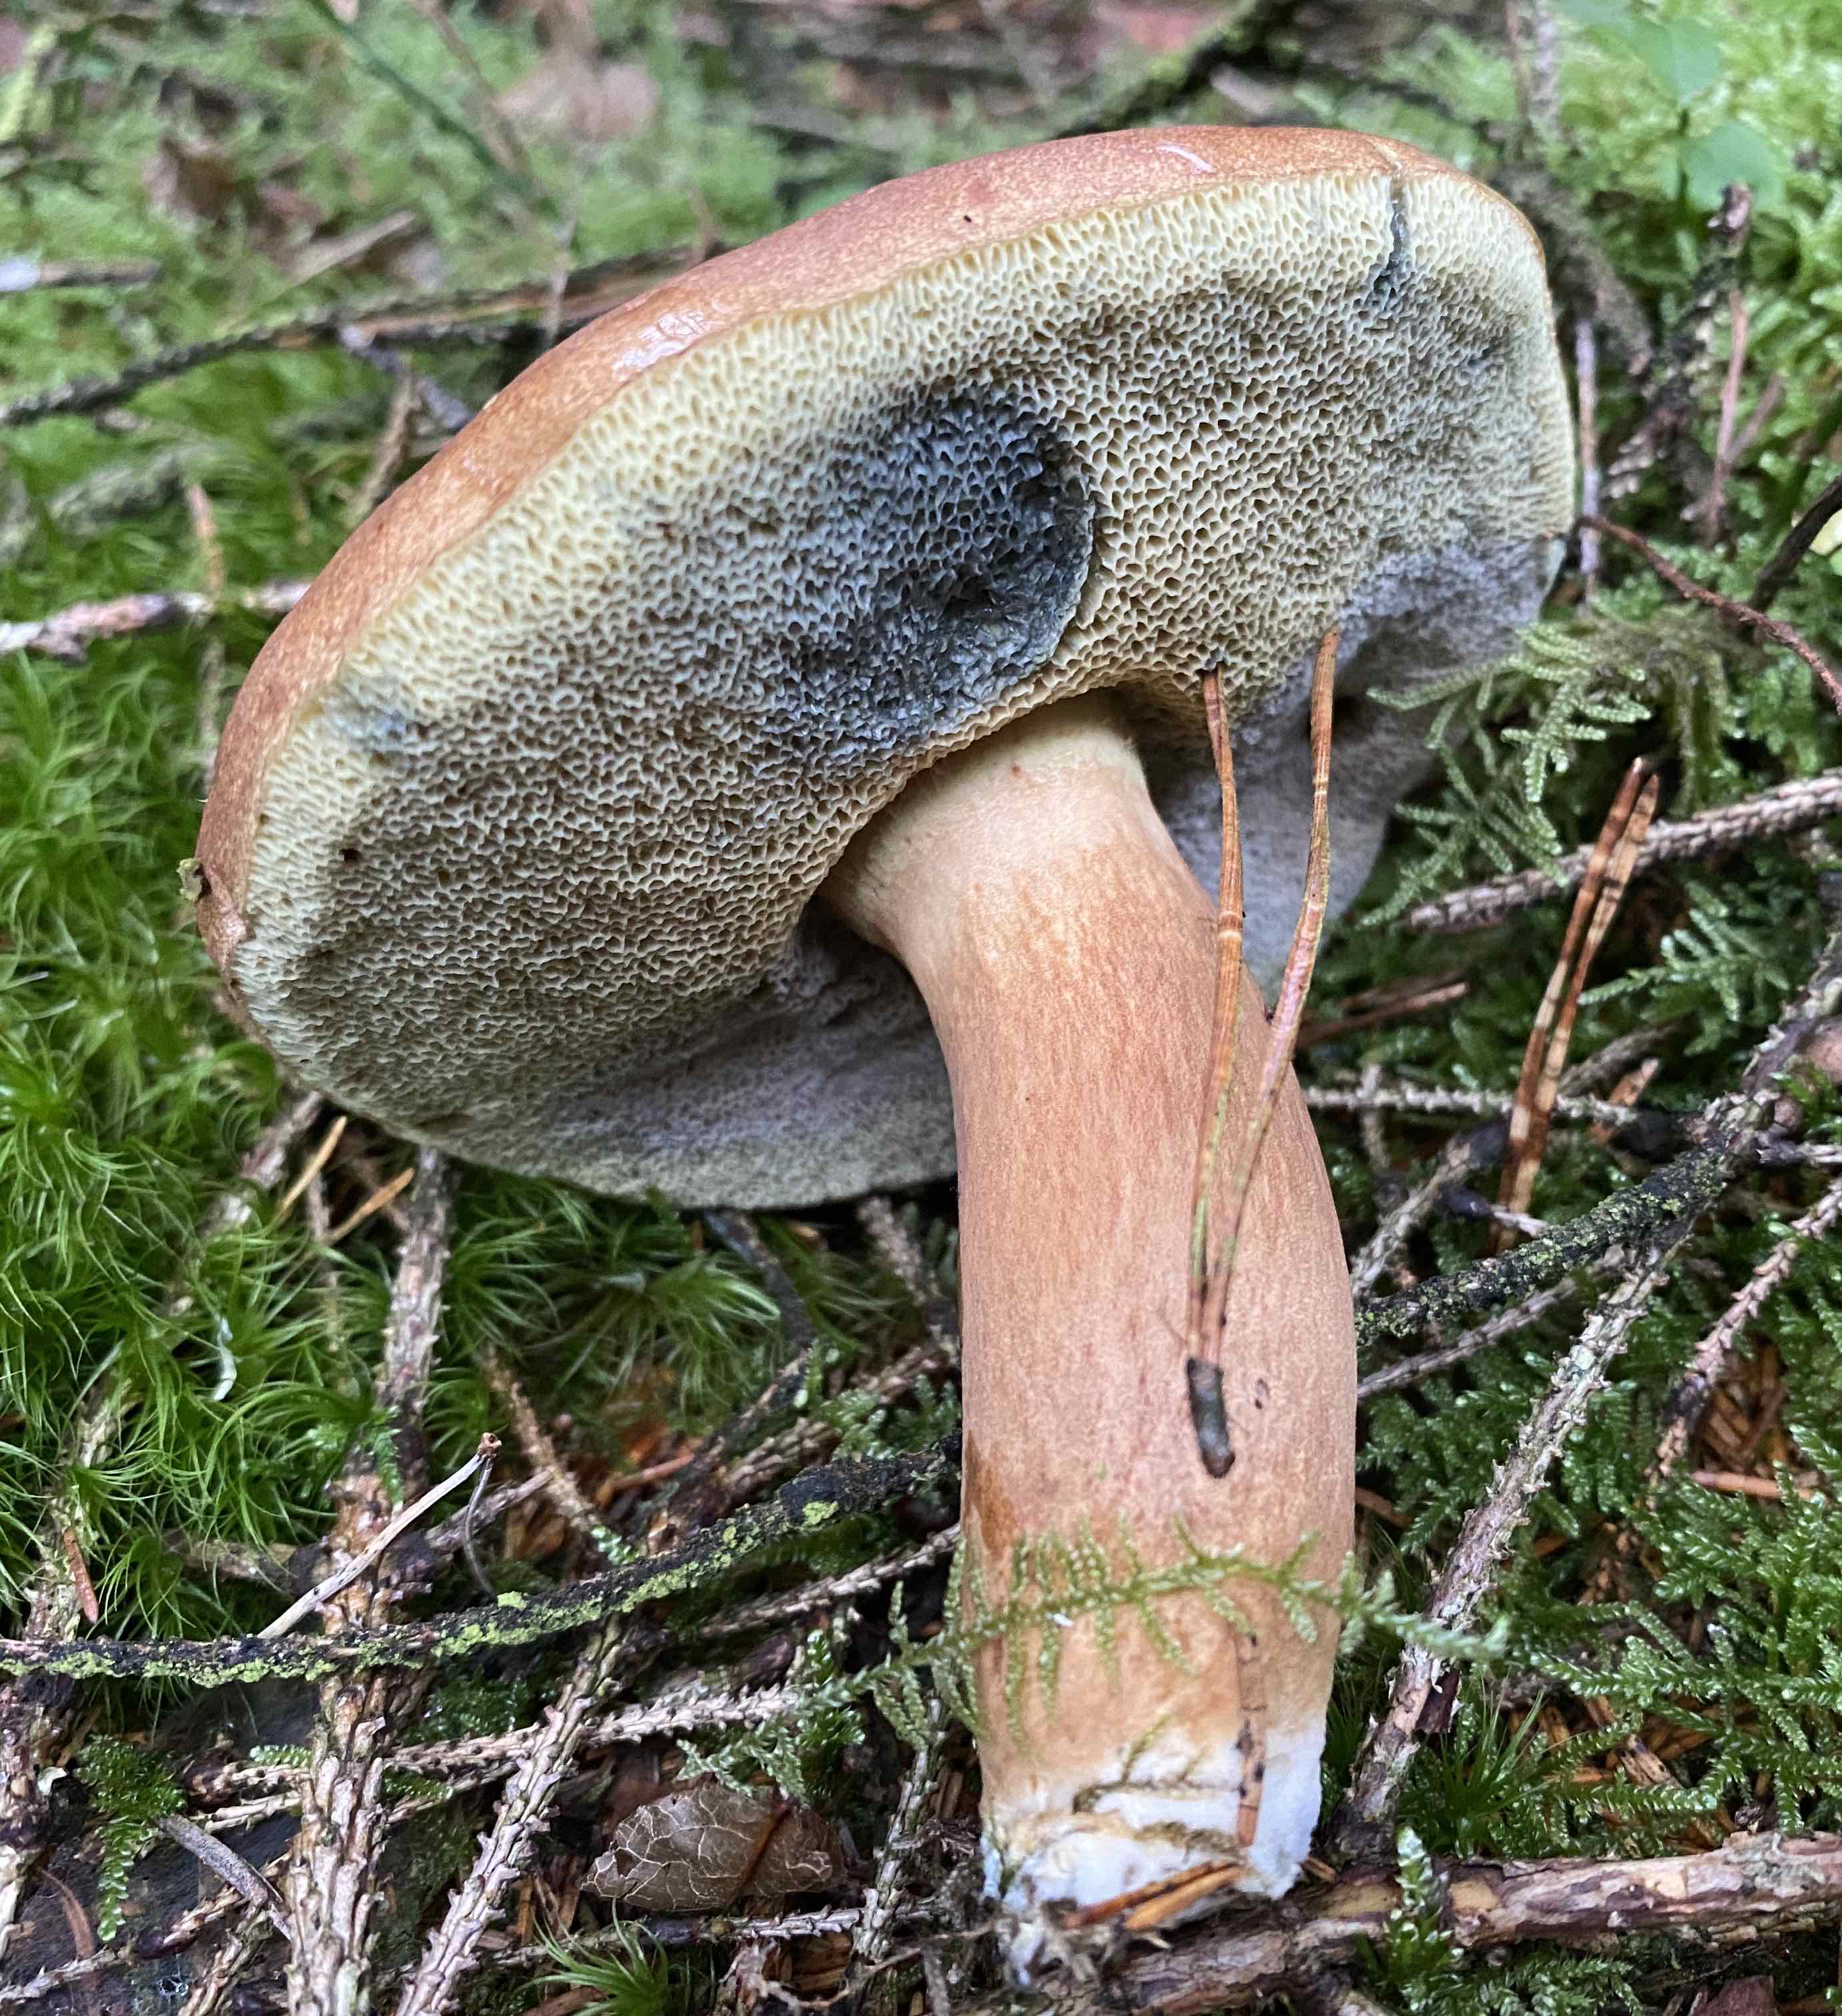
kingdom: Fungi
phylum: Basidiomycota
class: Agaricomycetes
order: Boletales
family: Boletaceae
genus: Imleria
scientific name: Imleria badia
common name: brunstokket rørhat
